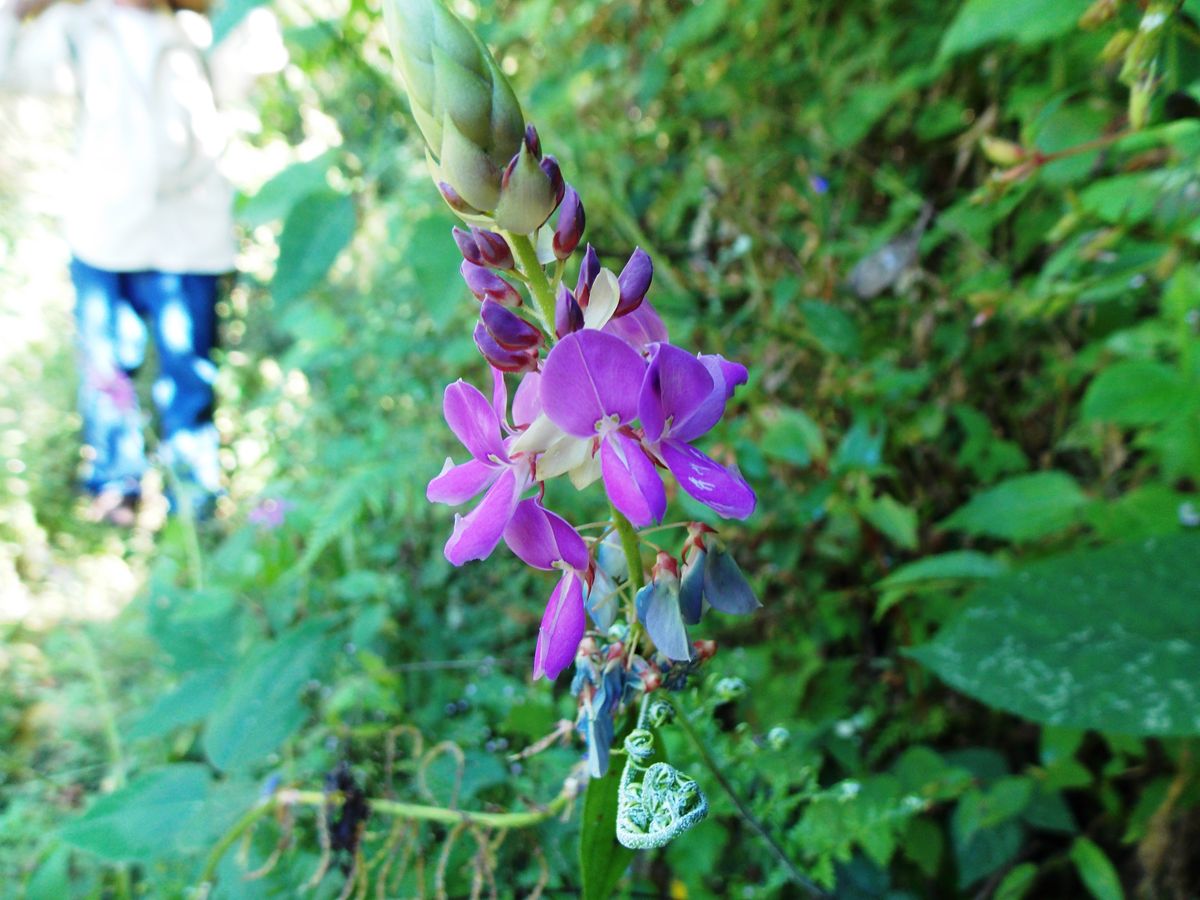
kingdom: Plantae
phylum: Tracheophyta
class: Magnoliopsida
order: Fabales
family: Fabaceae
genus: Desmodium
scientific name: Desmodium uncinatum
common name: Silverleaf desmodium
